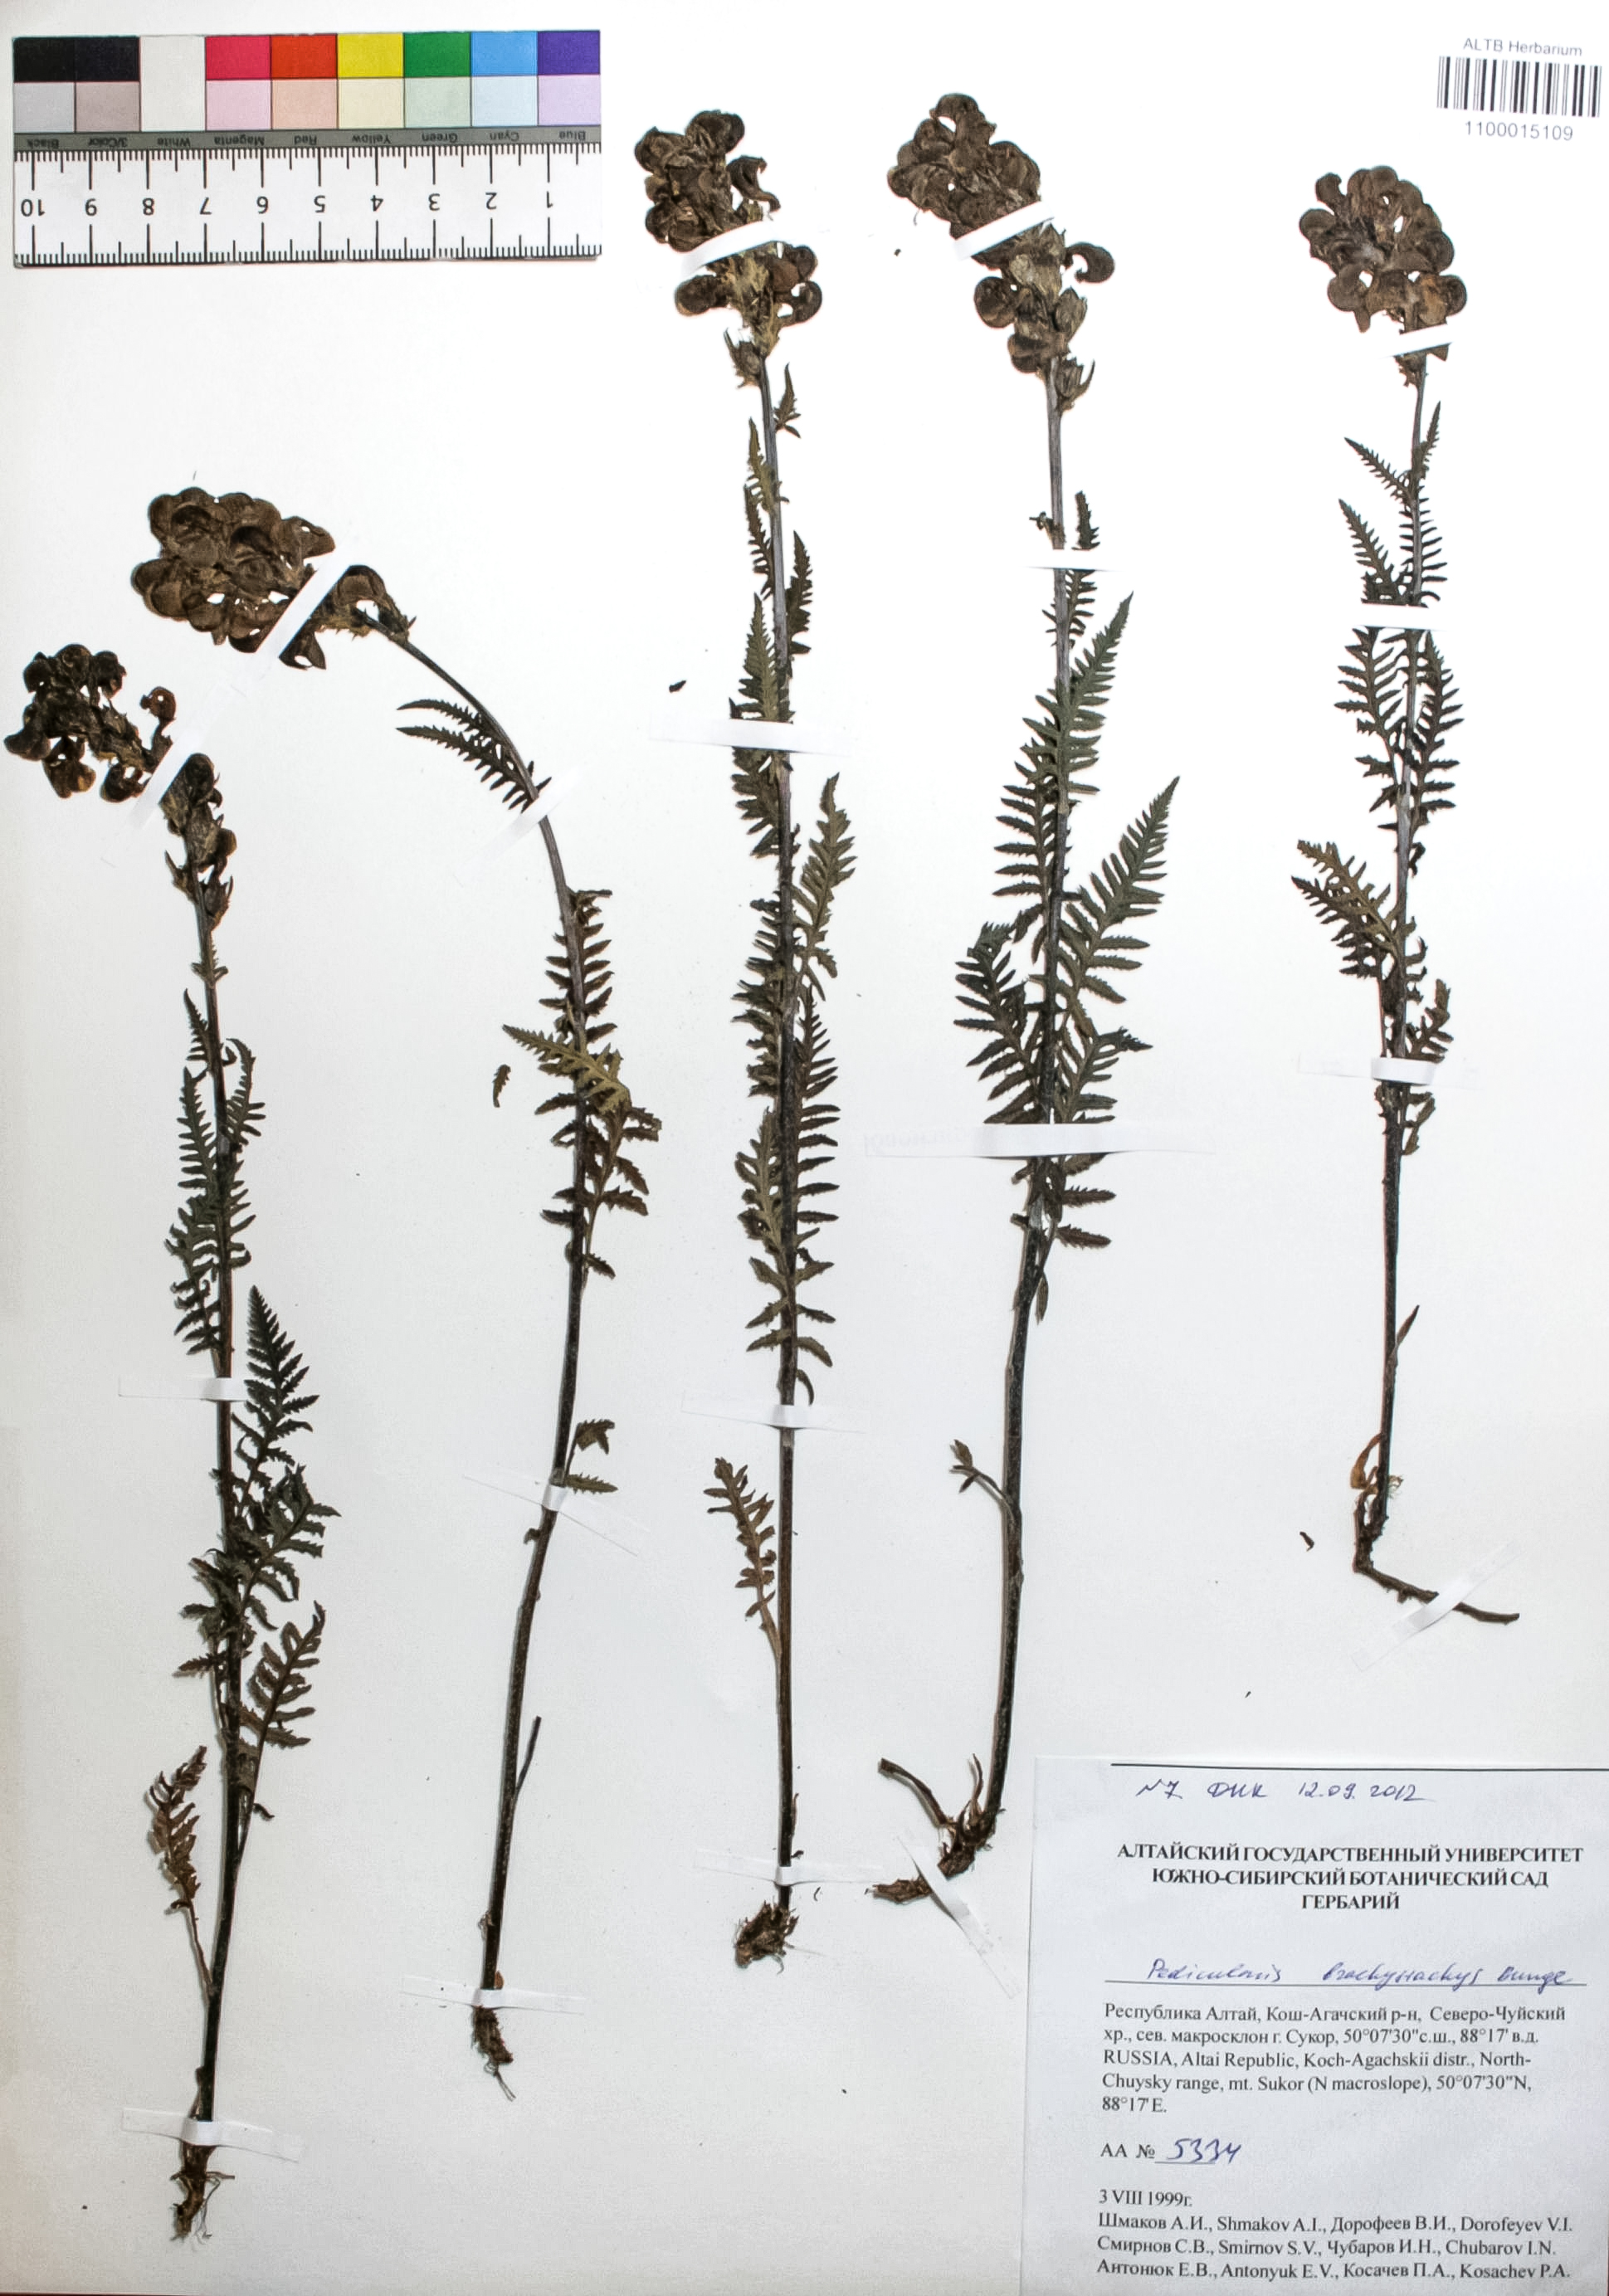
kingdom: Plantae
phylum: Tracheophyta
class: Magnoliopsida
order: Lamiales
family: Orobanchaceae
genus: Pedicularis
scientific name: Pedicularis lasiostachys
